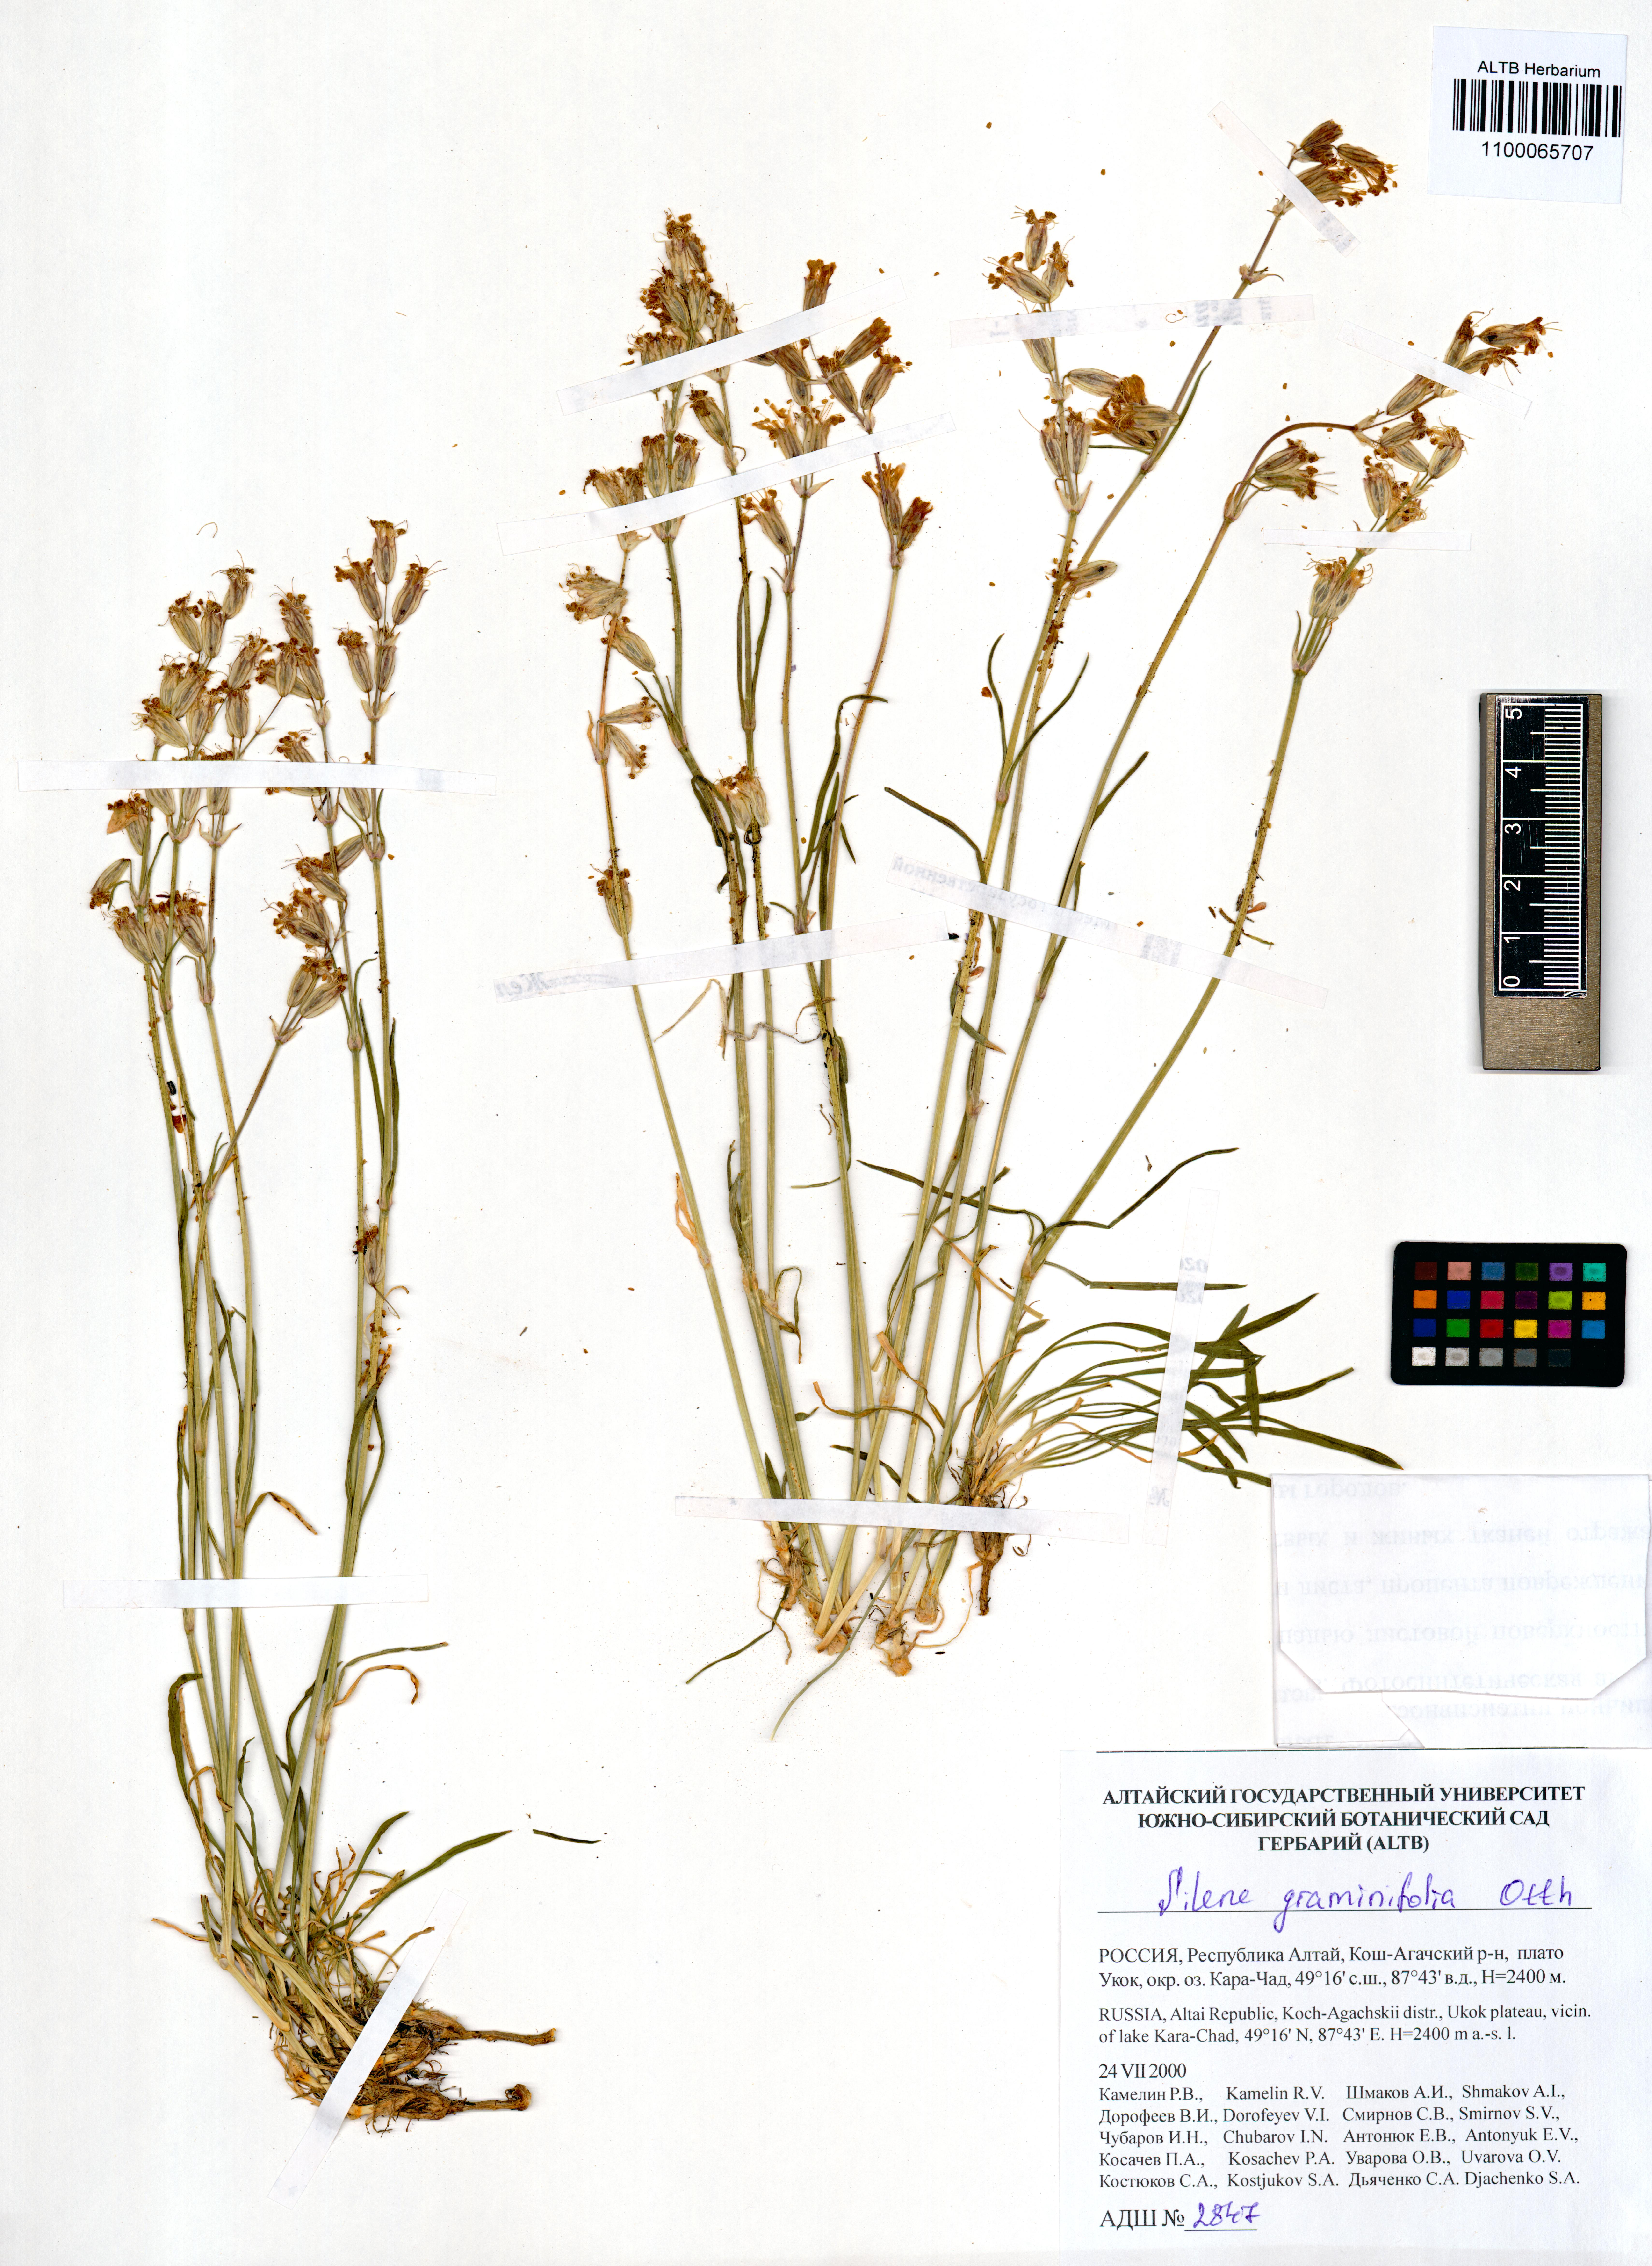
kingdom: Plantae
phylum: Tracheophyta
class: Magnoliopsida
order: Caryophyllales
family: Caryophyllaceae
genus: Silene
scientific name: Silene graminifolia
